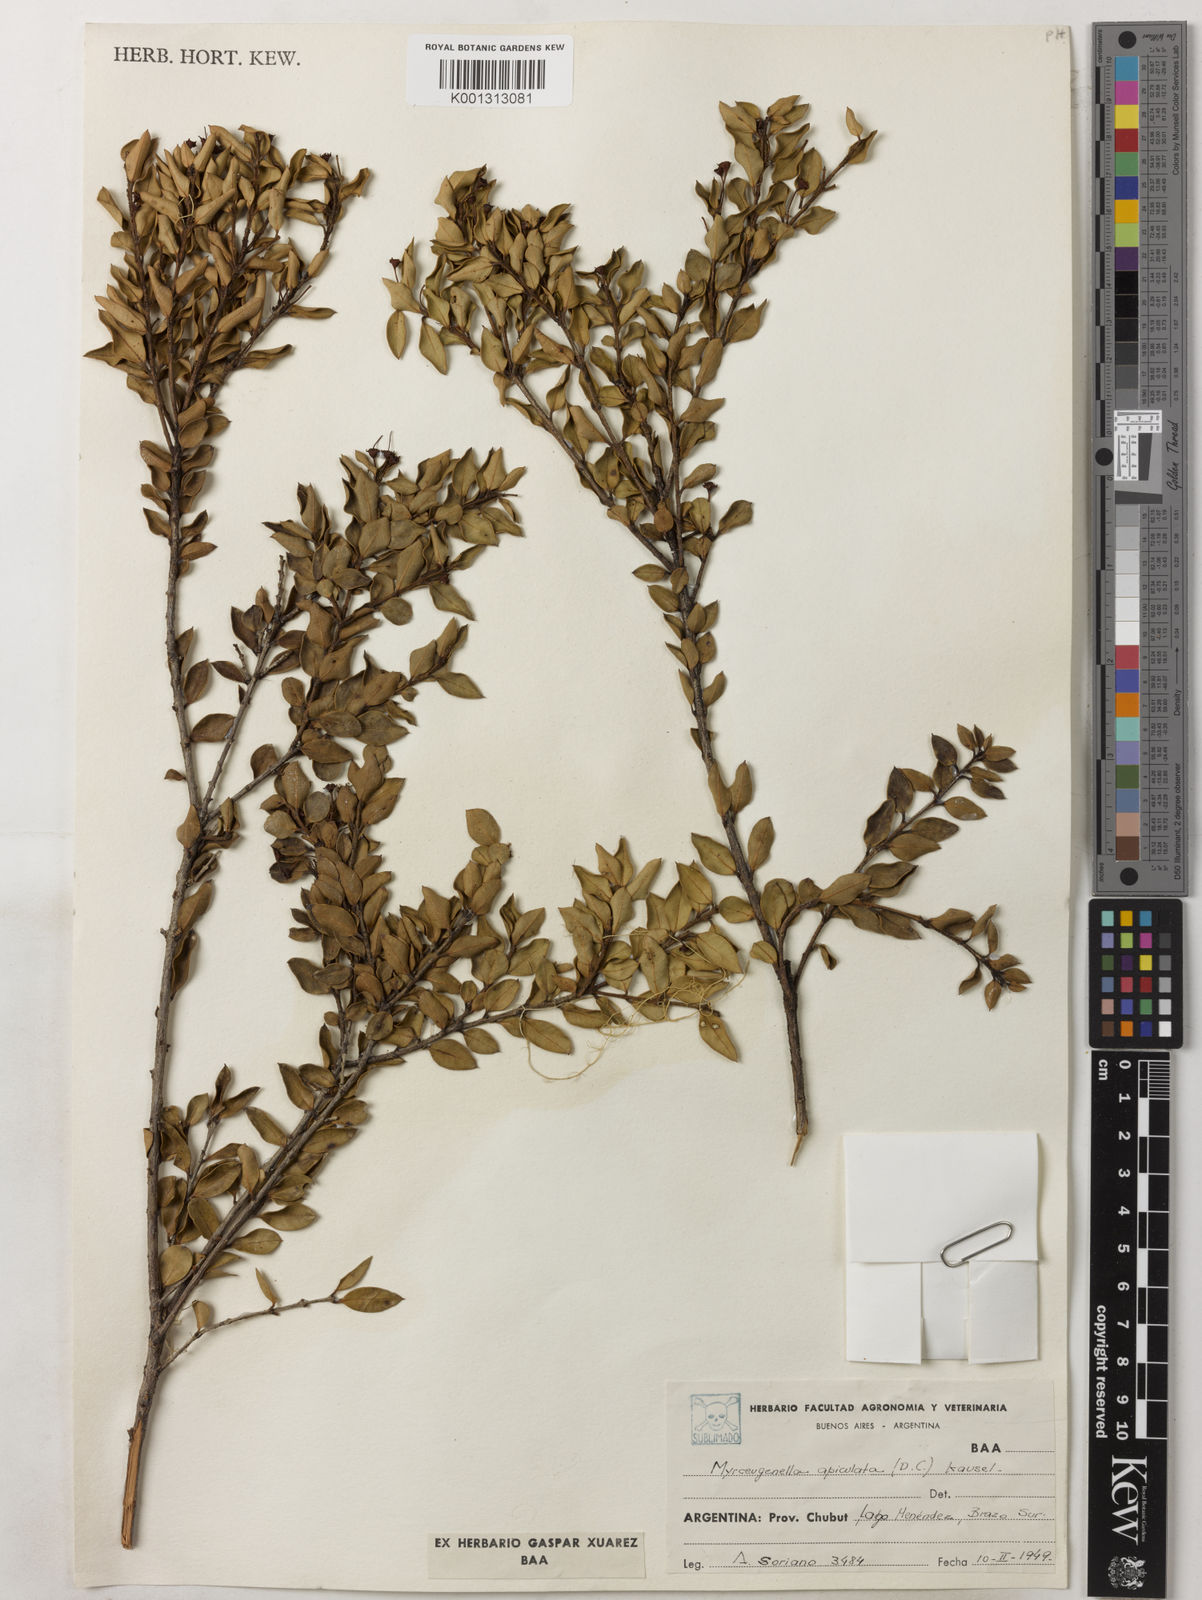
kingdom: Plantae
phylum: Tracheophyta
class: Magnoliopsida
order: Myrtales
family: Myrtaceae
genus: Luma
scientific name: Luma apiculata
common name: Chilean myrtle
